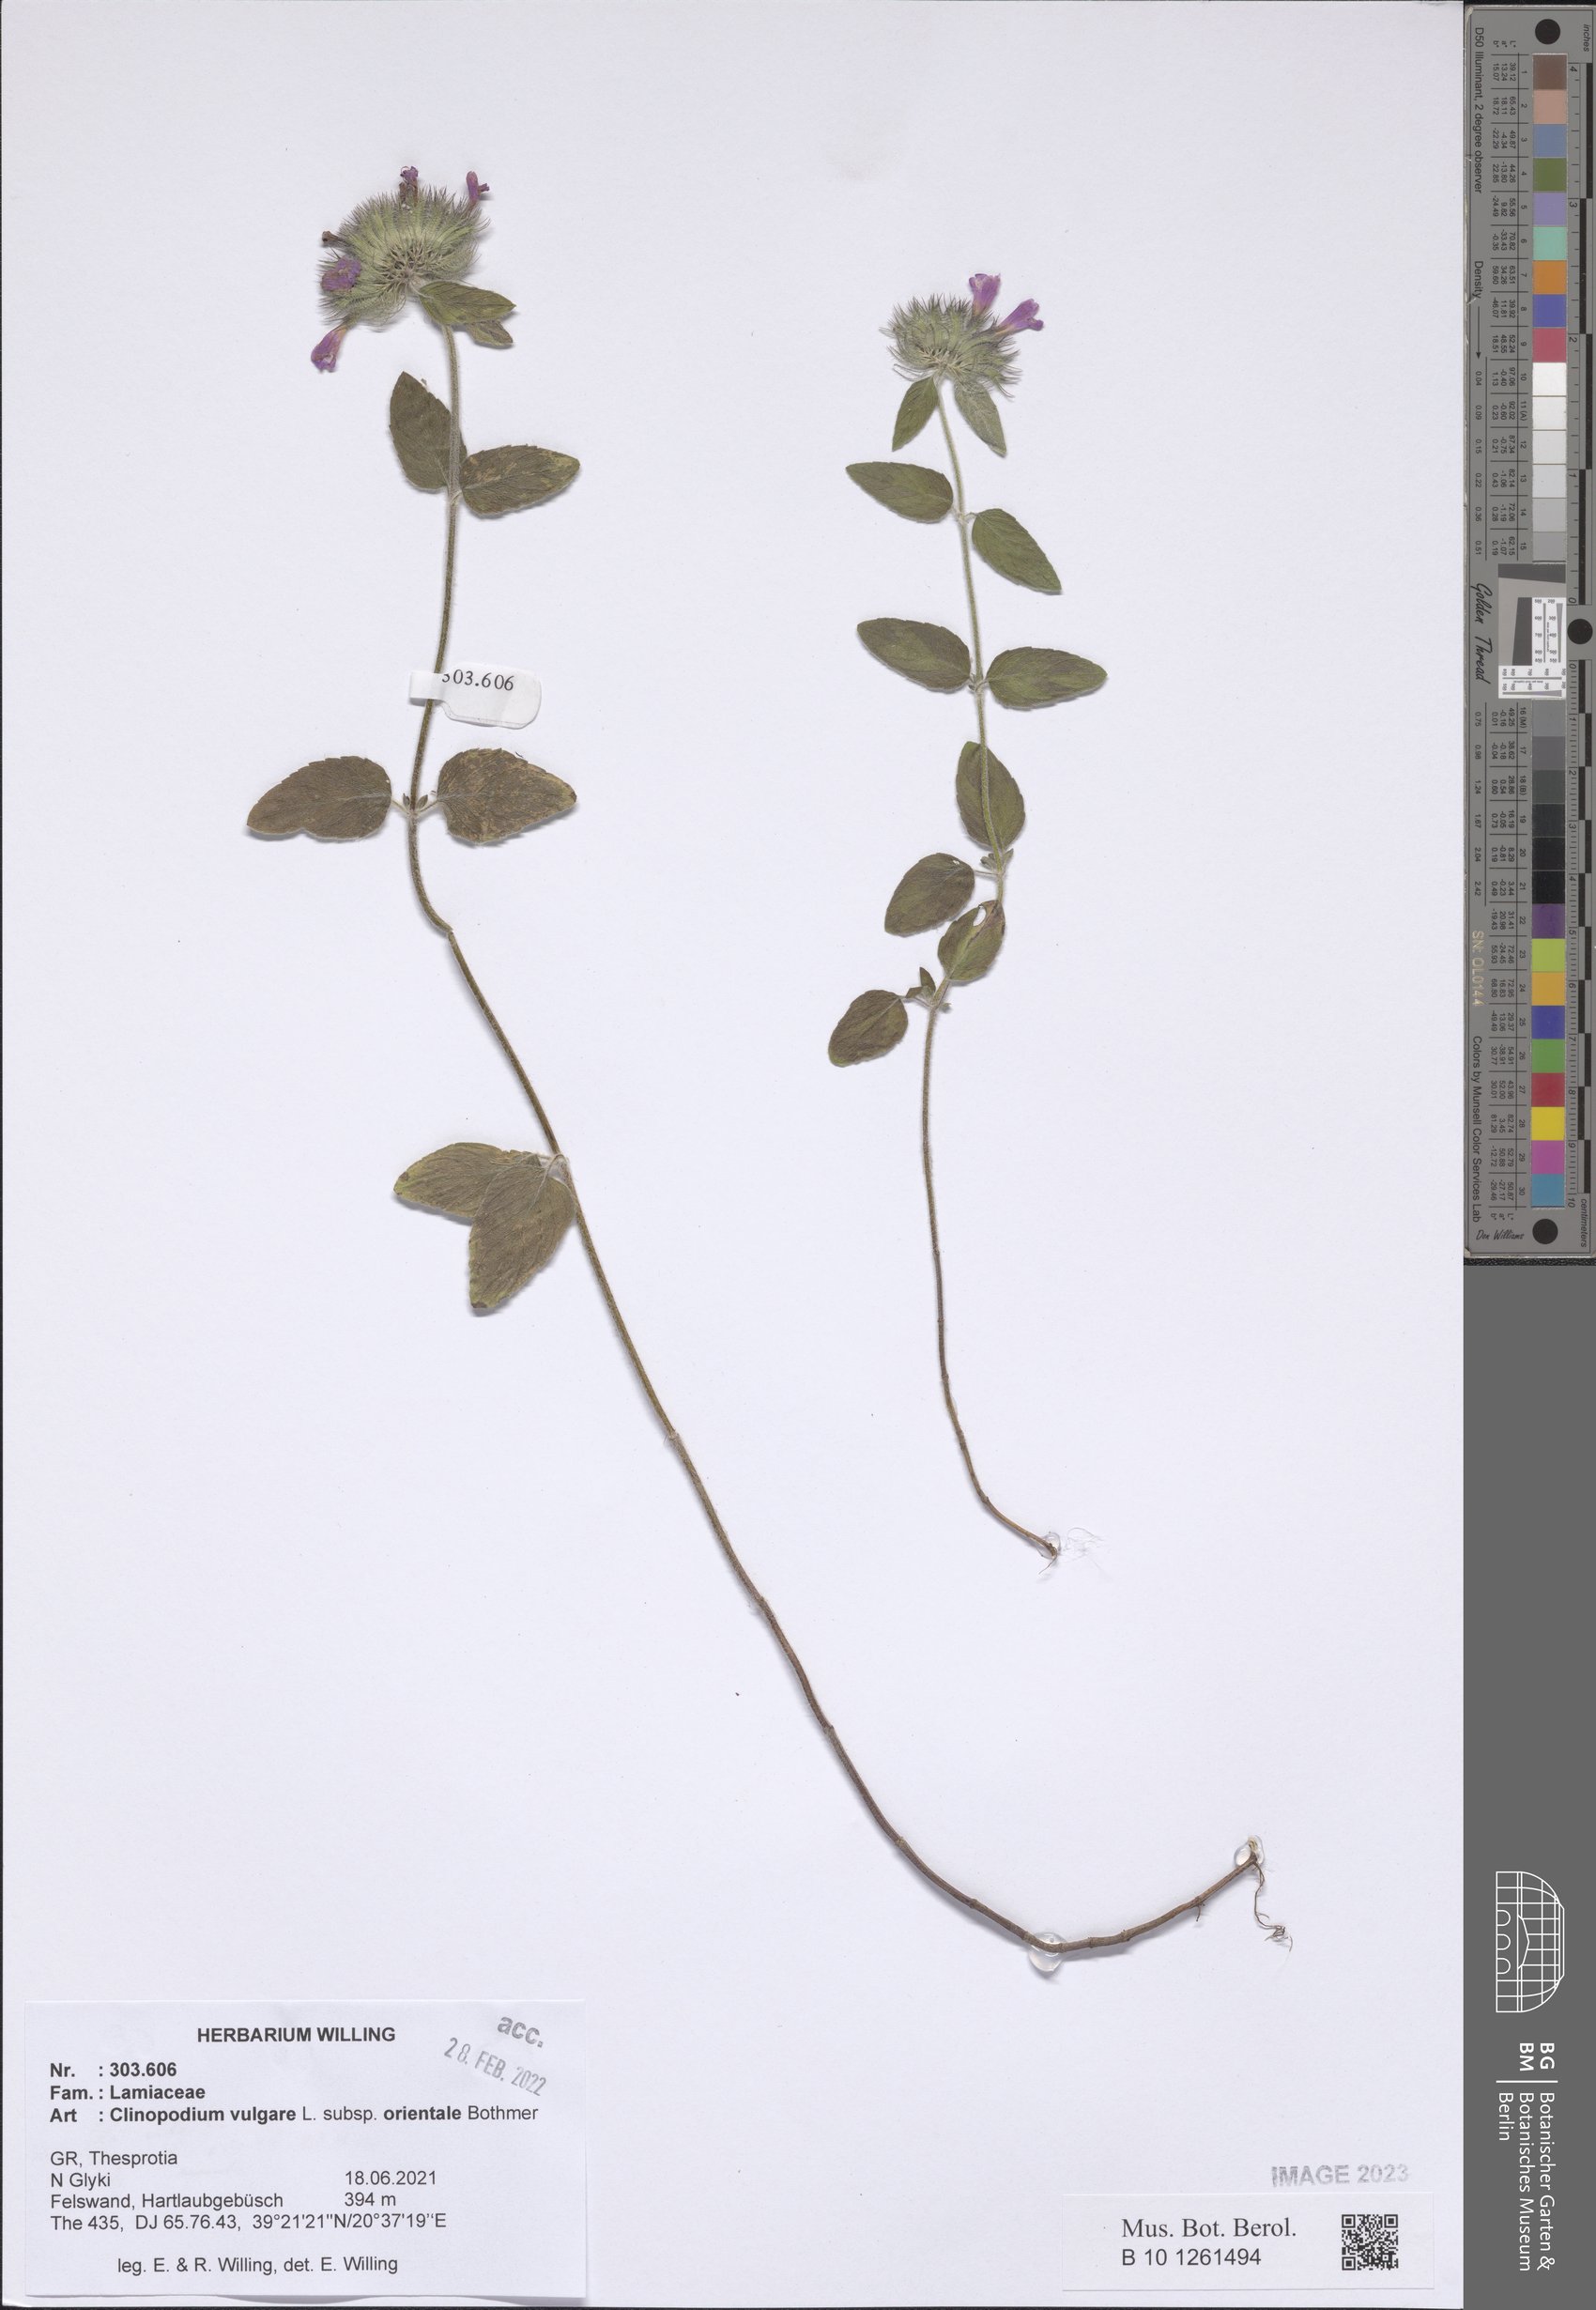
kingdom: Plantae
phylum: Tracheophyta
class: Magnoliopsida
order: Lamiales
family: Lamiaceae
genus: Clinopodium
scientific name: Clinopodium vulgare
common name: Wild basil
